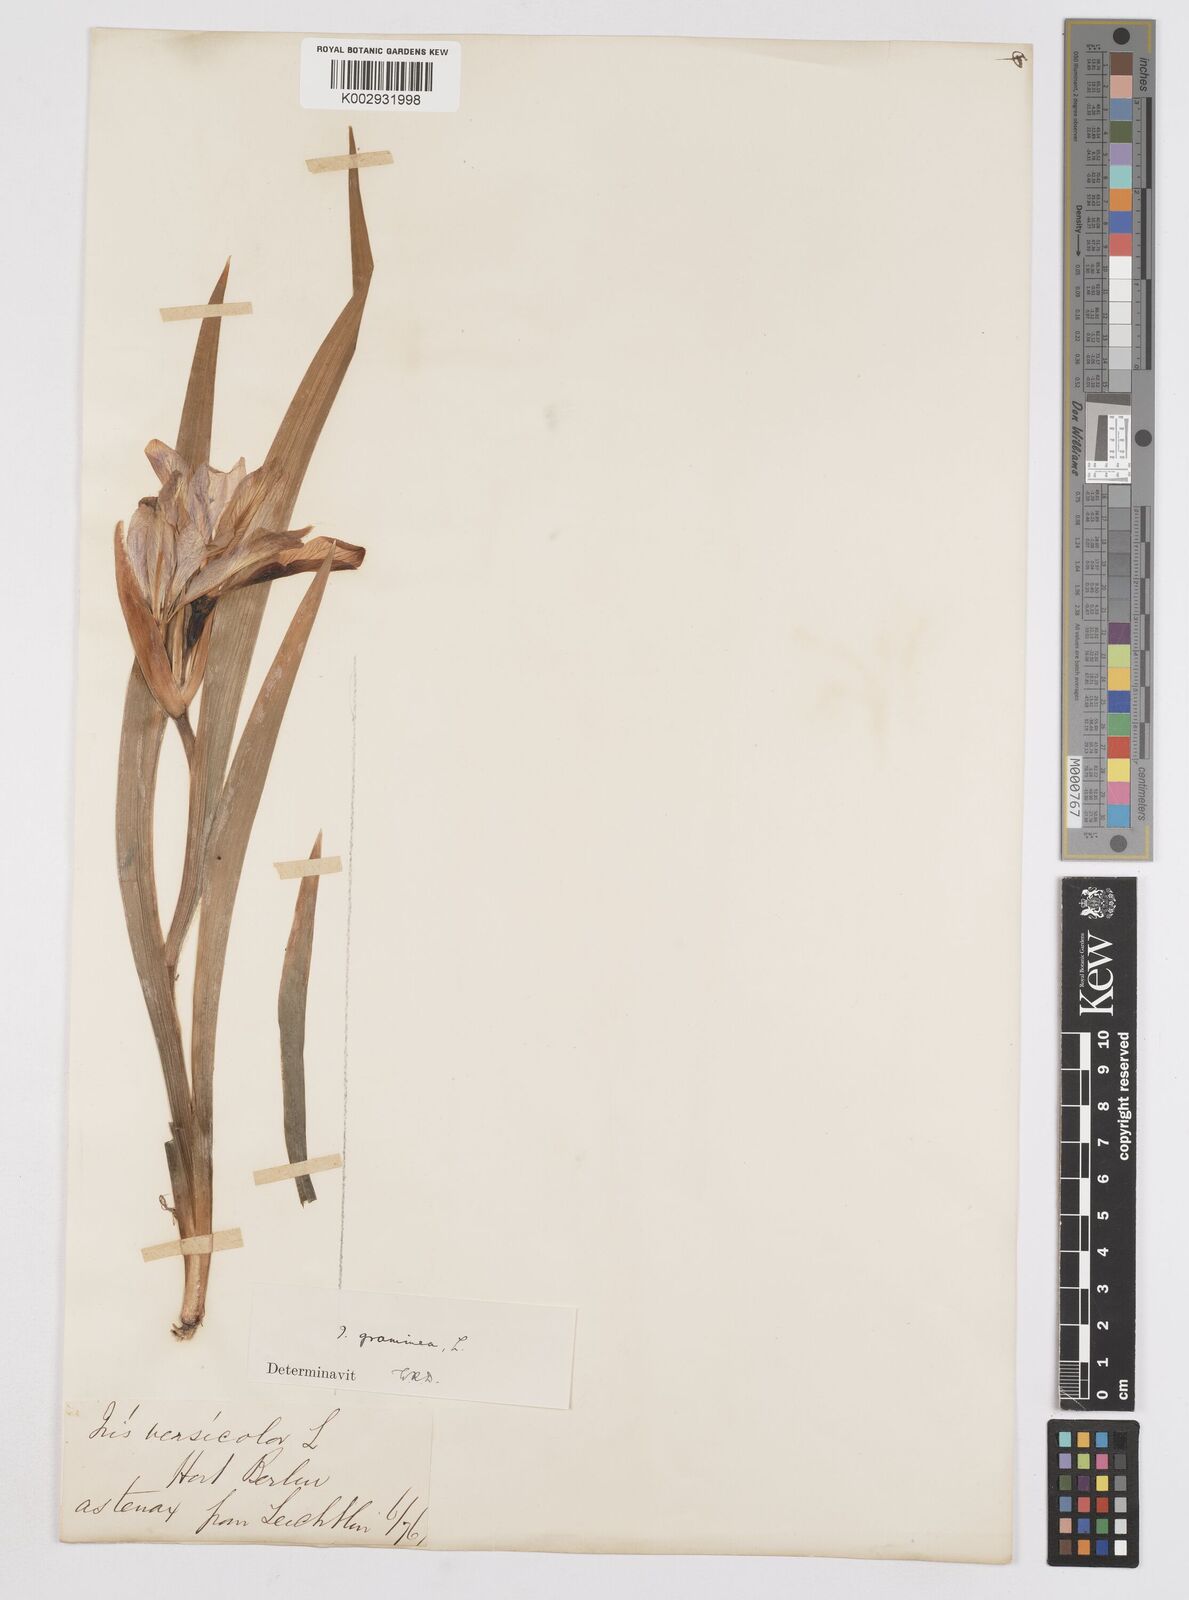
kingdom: Plantae
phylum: Tracheophyta
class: Liliopsida
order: Asparagales
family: Iridaceae
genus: Iris
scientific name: Iris graminea
